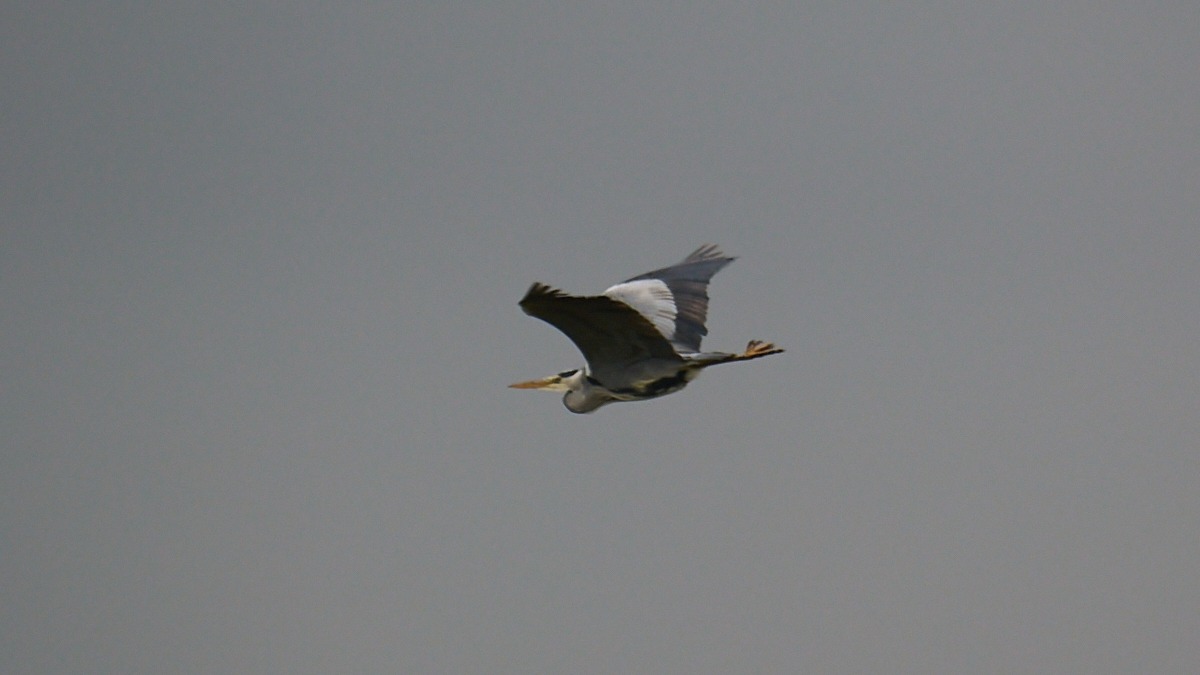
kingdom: Animalia
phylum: Chordata
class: Aves
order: Pelecaniformes
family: Ardeidae
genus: Ardea
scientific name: Ardea cinerea
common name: Fiskehejre
